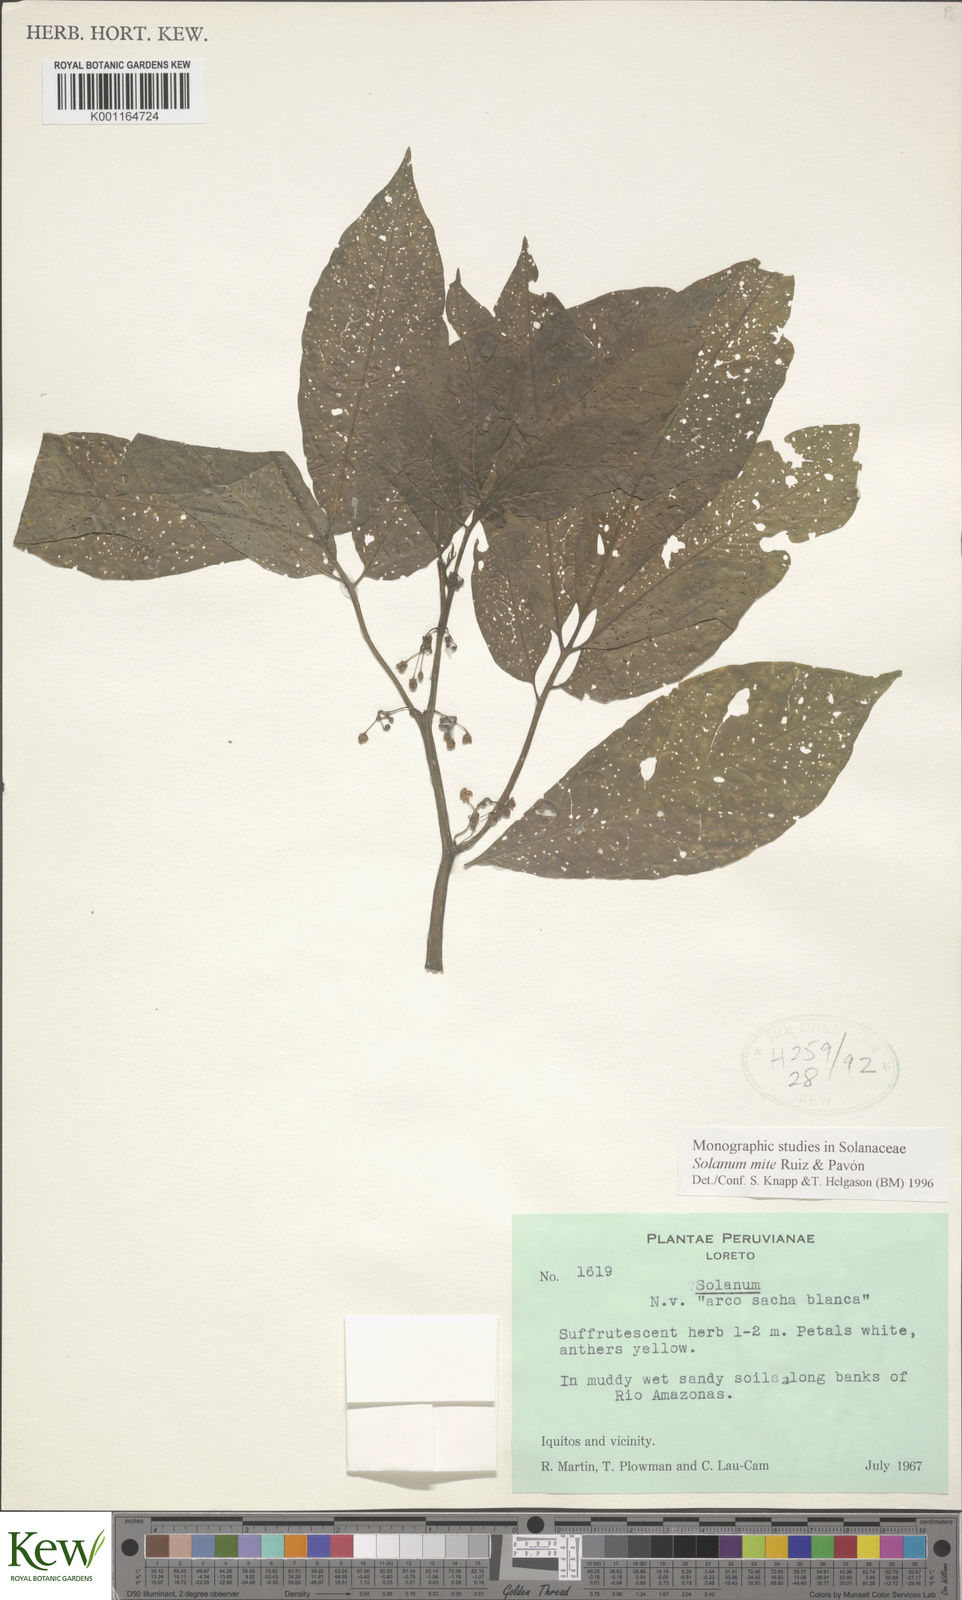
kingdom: Plantae
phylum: Tracheophyta
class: Magnoliopsida
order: Solanales
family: Solanaceae
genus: Solanum
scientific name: Solanum mite
